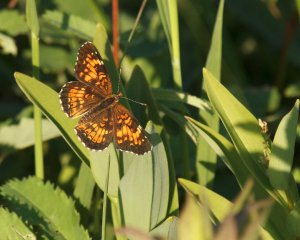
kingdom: Animalia
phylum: Arthropoda
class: Insecta
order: Lepidoptera
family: Nymphalidae
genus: Chlosyne
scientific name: Chlosyne harrisii
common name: Harris's Checkerspot
